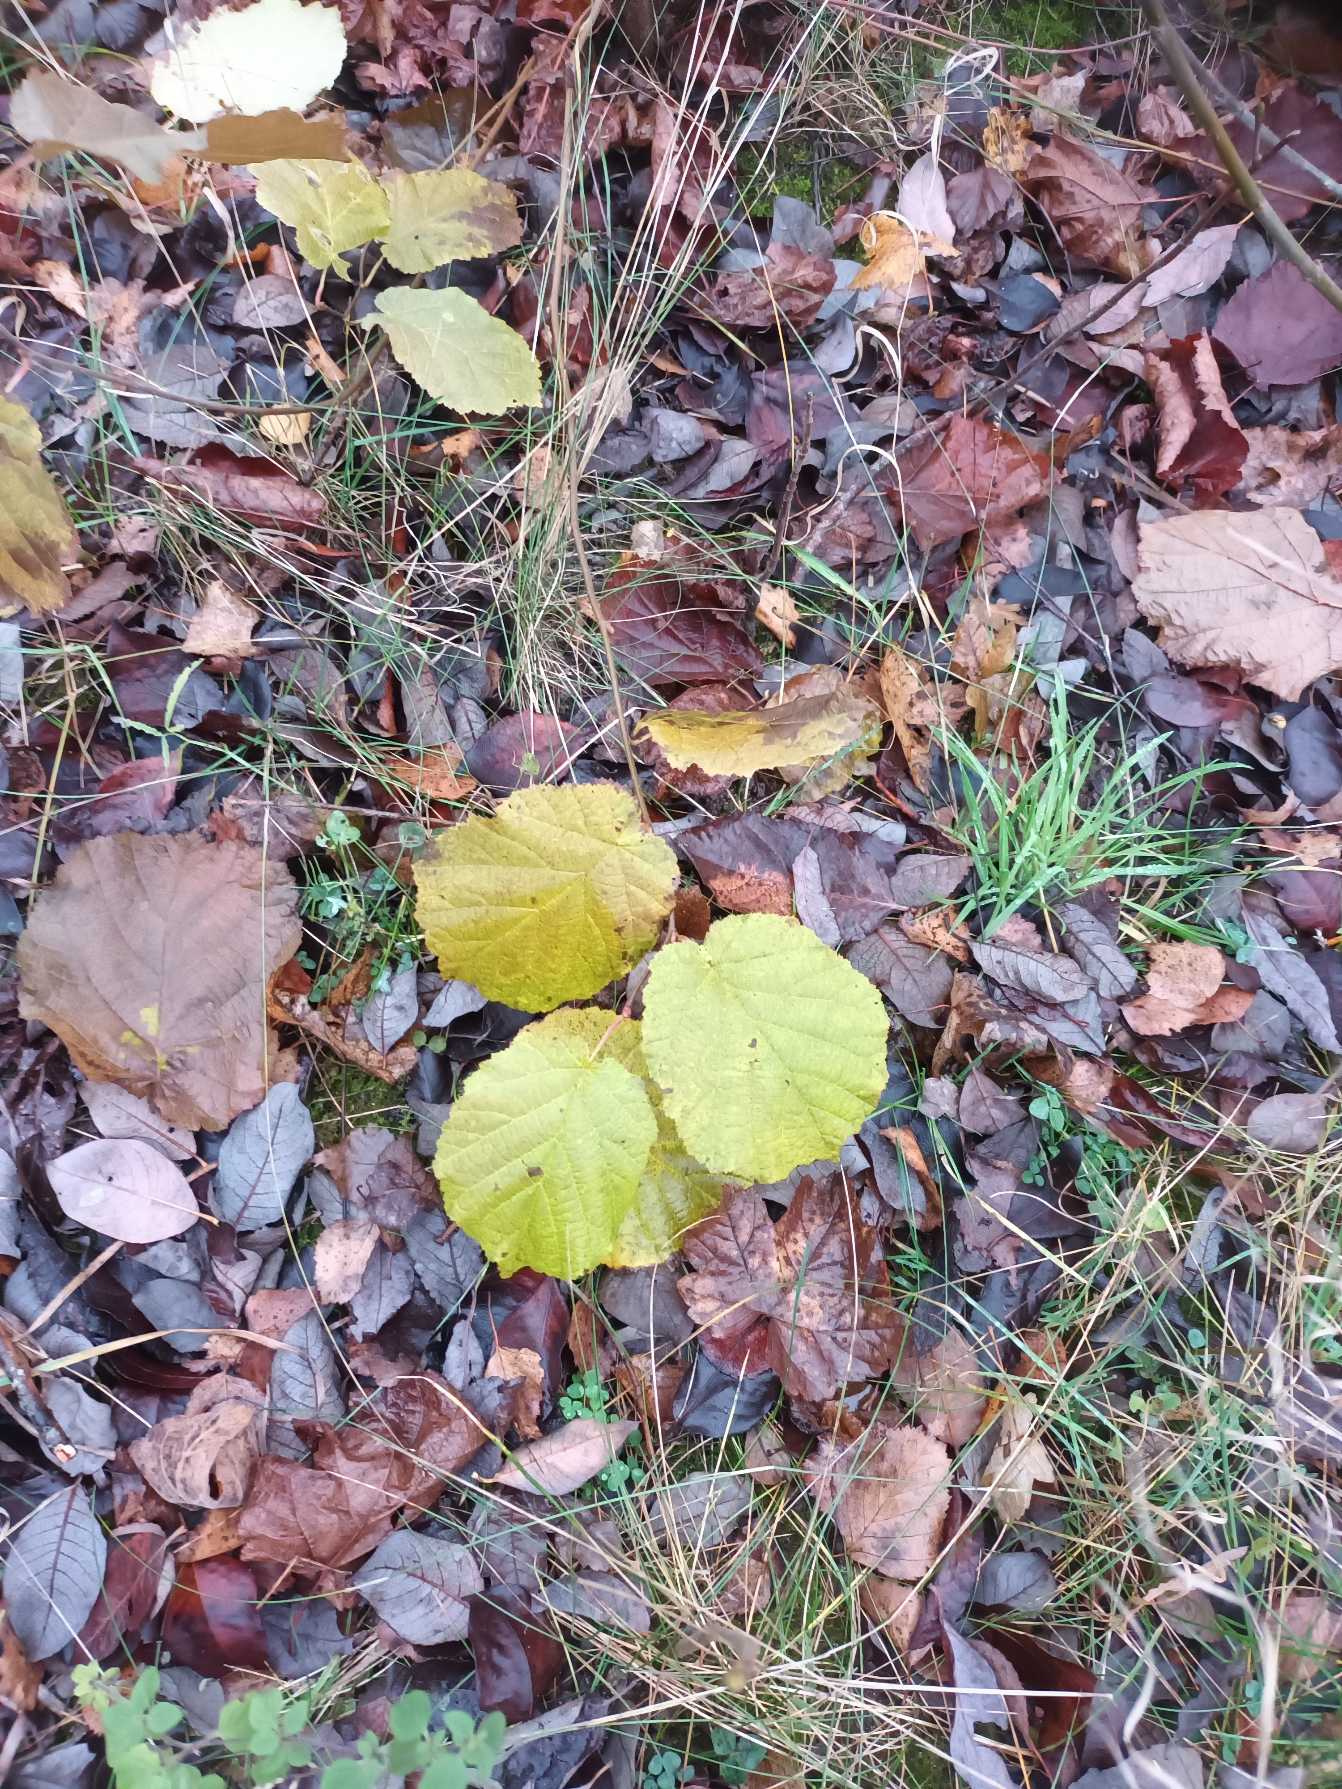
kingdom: Plantae
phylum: Tracheophyta
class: Magnoliopsida
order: Fagales
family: Betulaceae
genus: Corylus
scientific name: Corylus avellana
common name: Hassel
